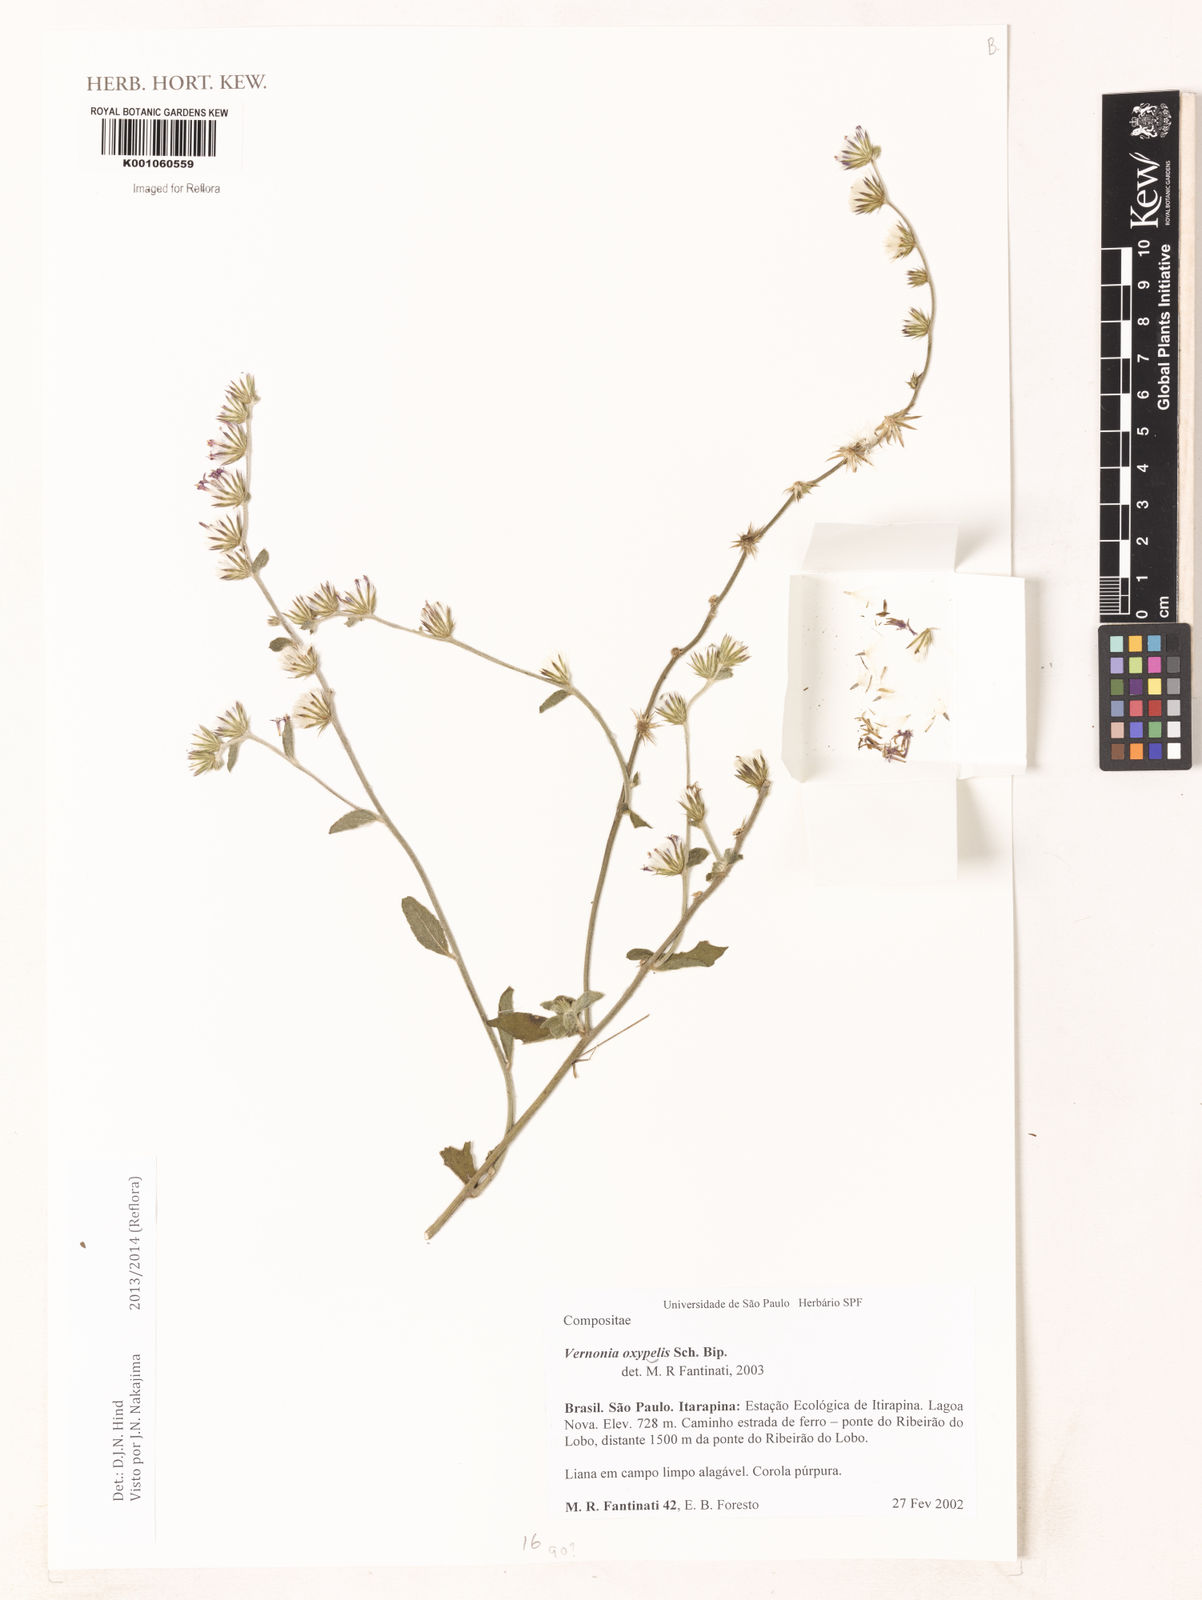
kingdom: Plantae
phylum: Tracheophyta
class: Magnoliopsida
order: Asterales
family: Asteraceae
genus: Lepidaploa
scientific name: Lepidaploa psilostachya
